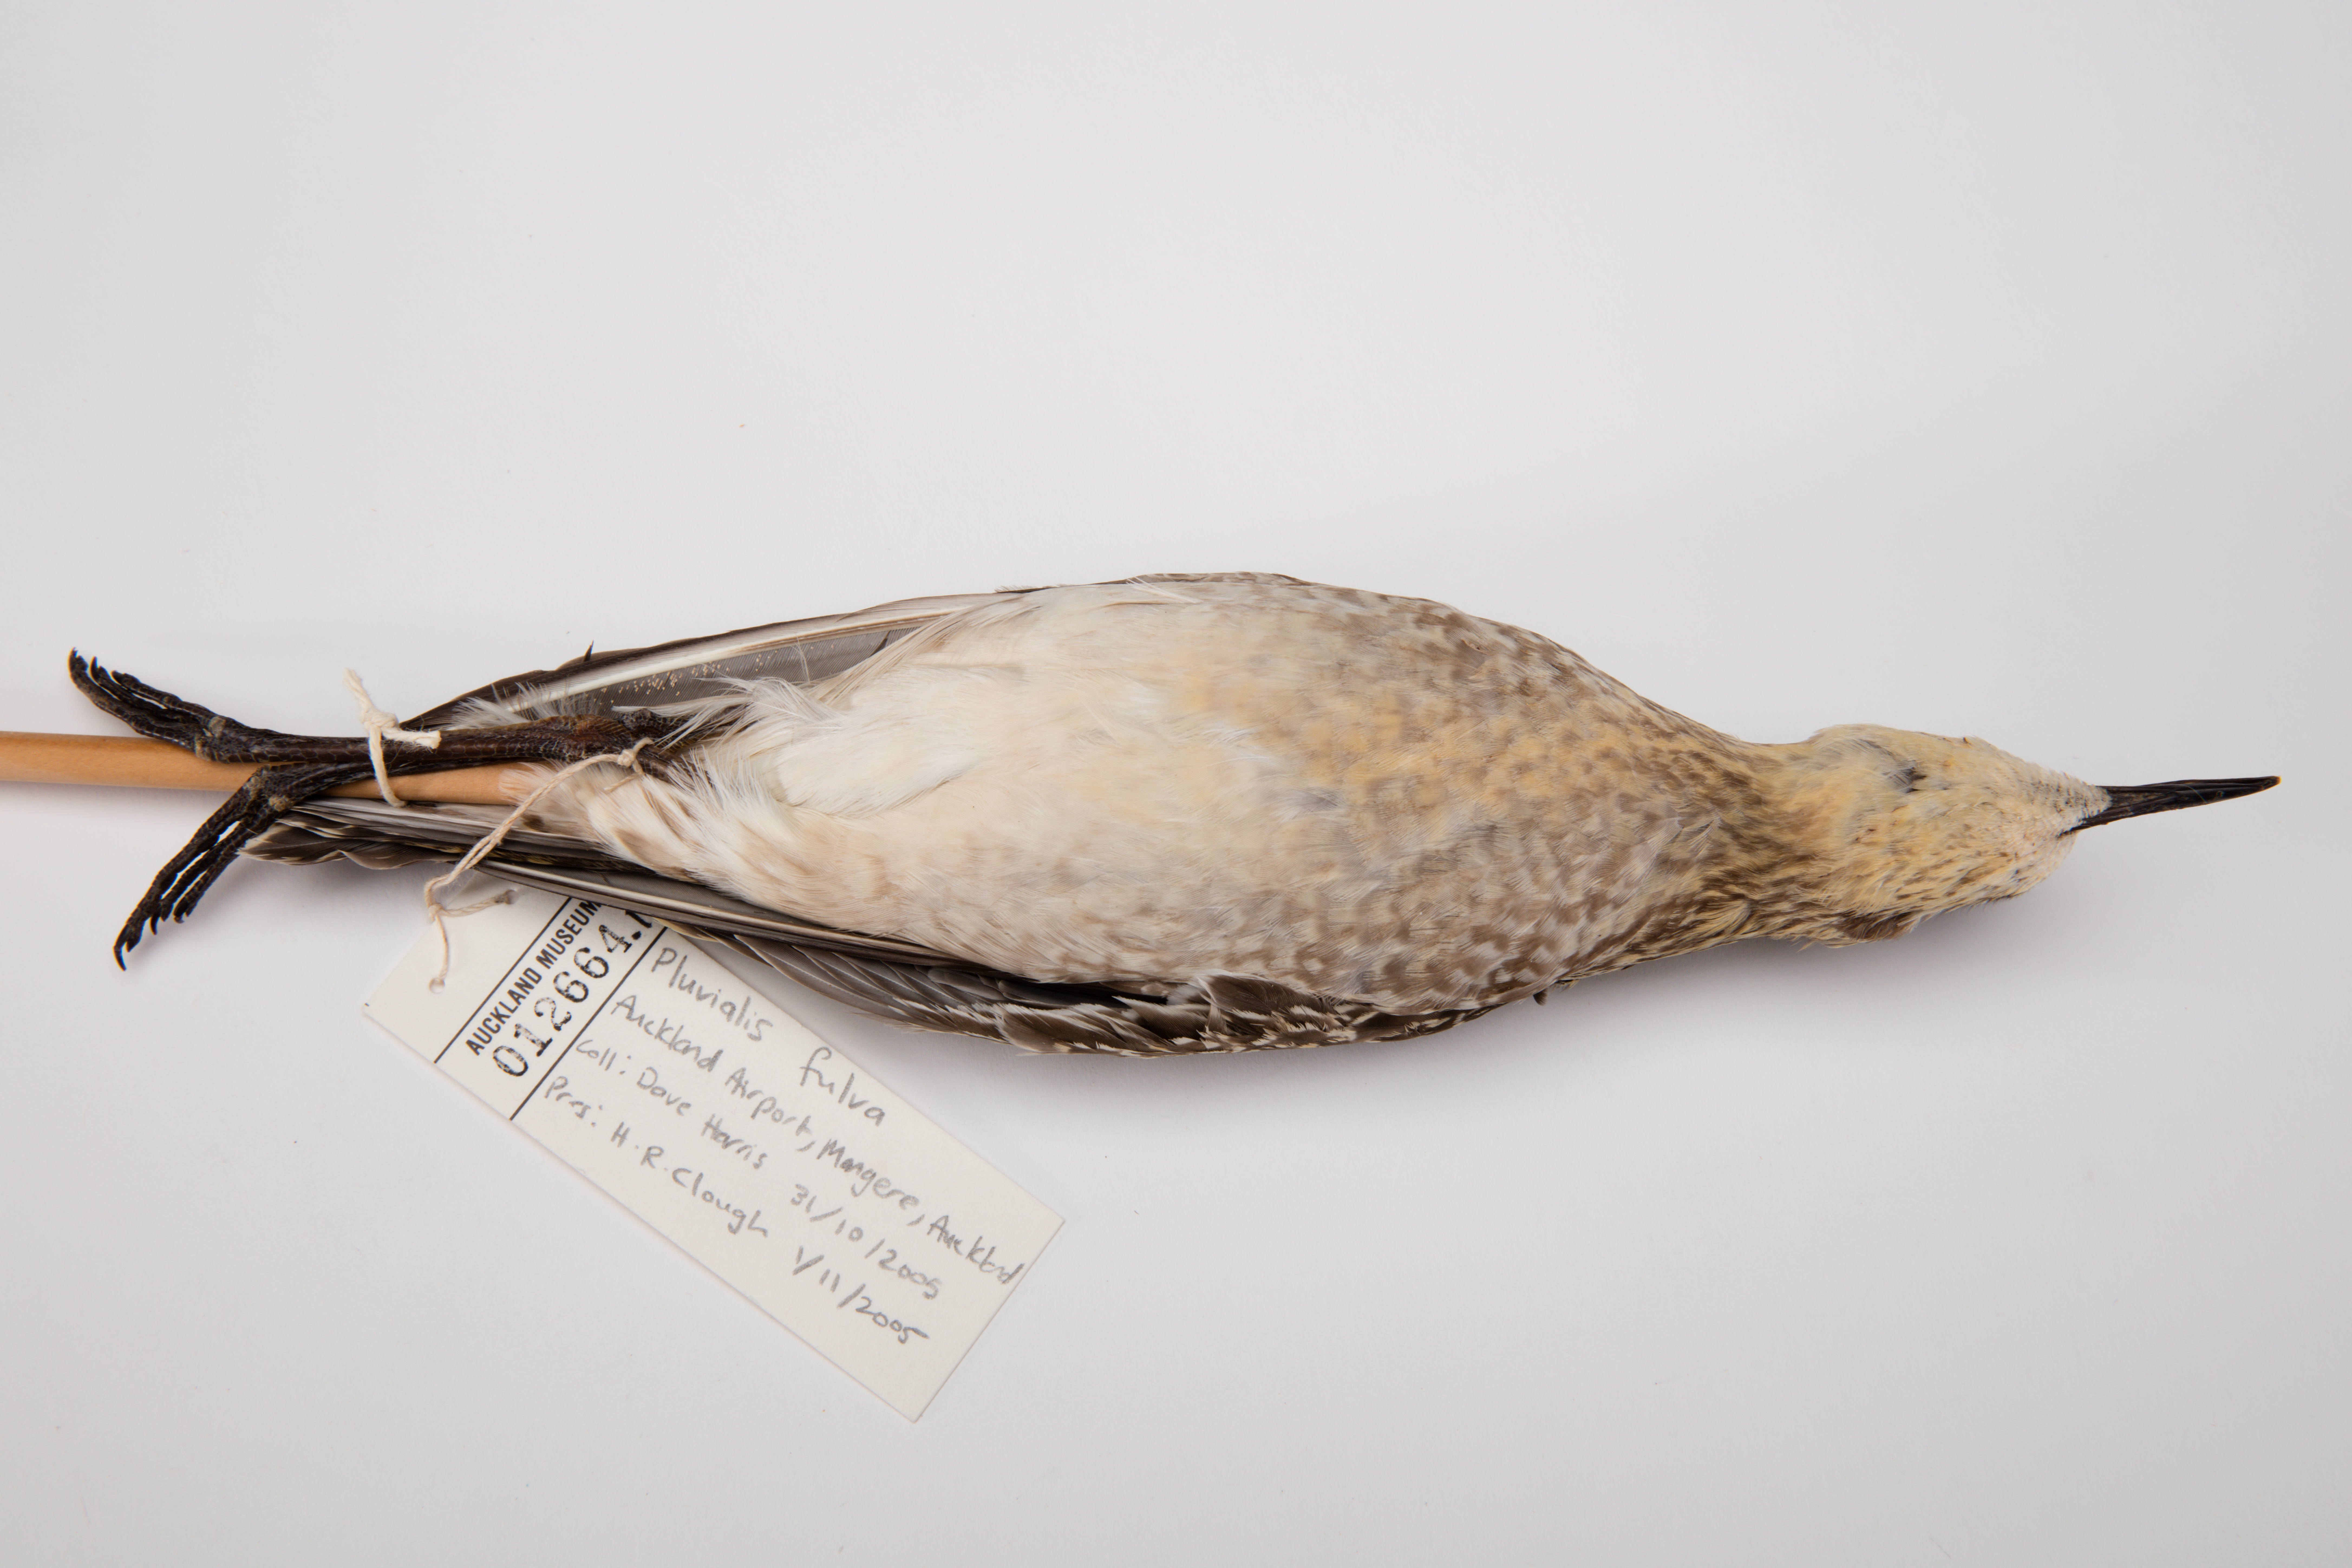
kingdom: Animalia
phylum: Chordata
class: Aves
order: Charadriiformes
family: Charadriidae
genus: Pluvialis
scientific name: Pluvialis fulva
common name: Pacific golden plover
